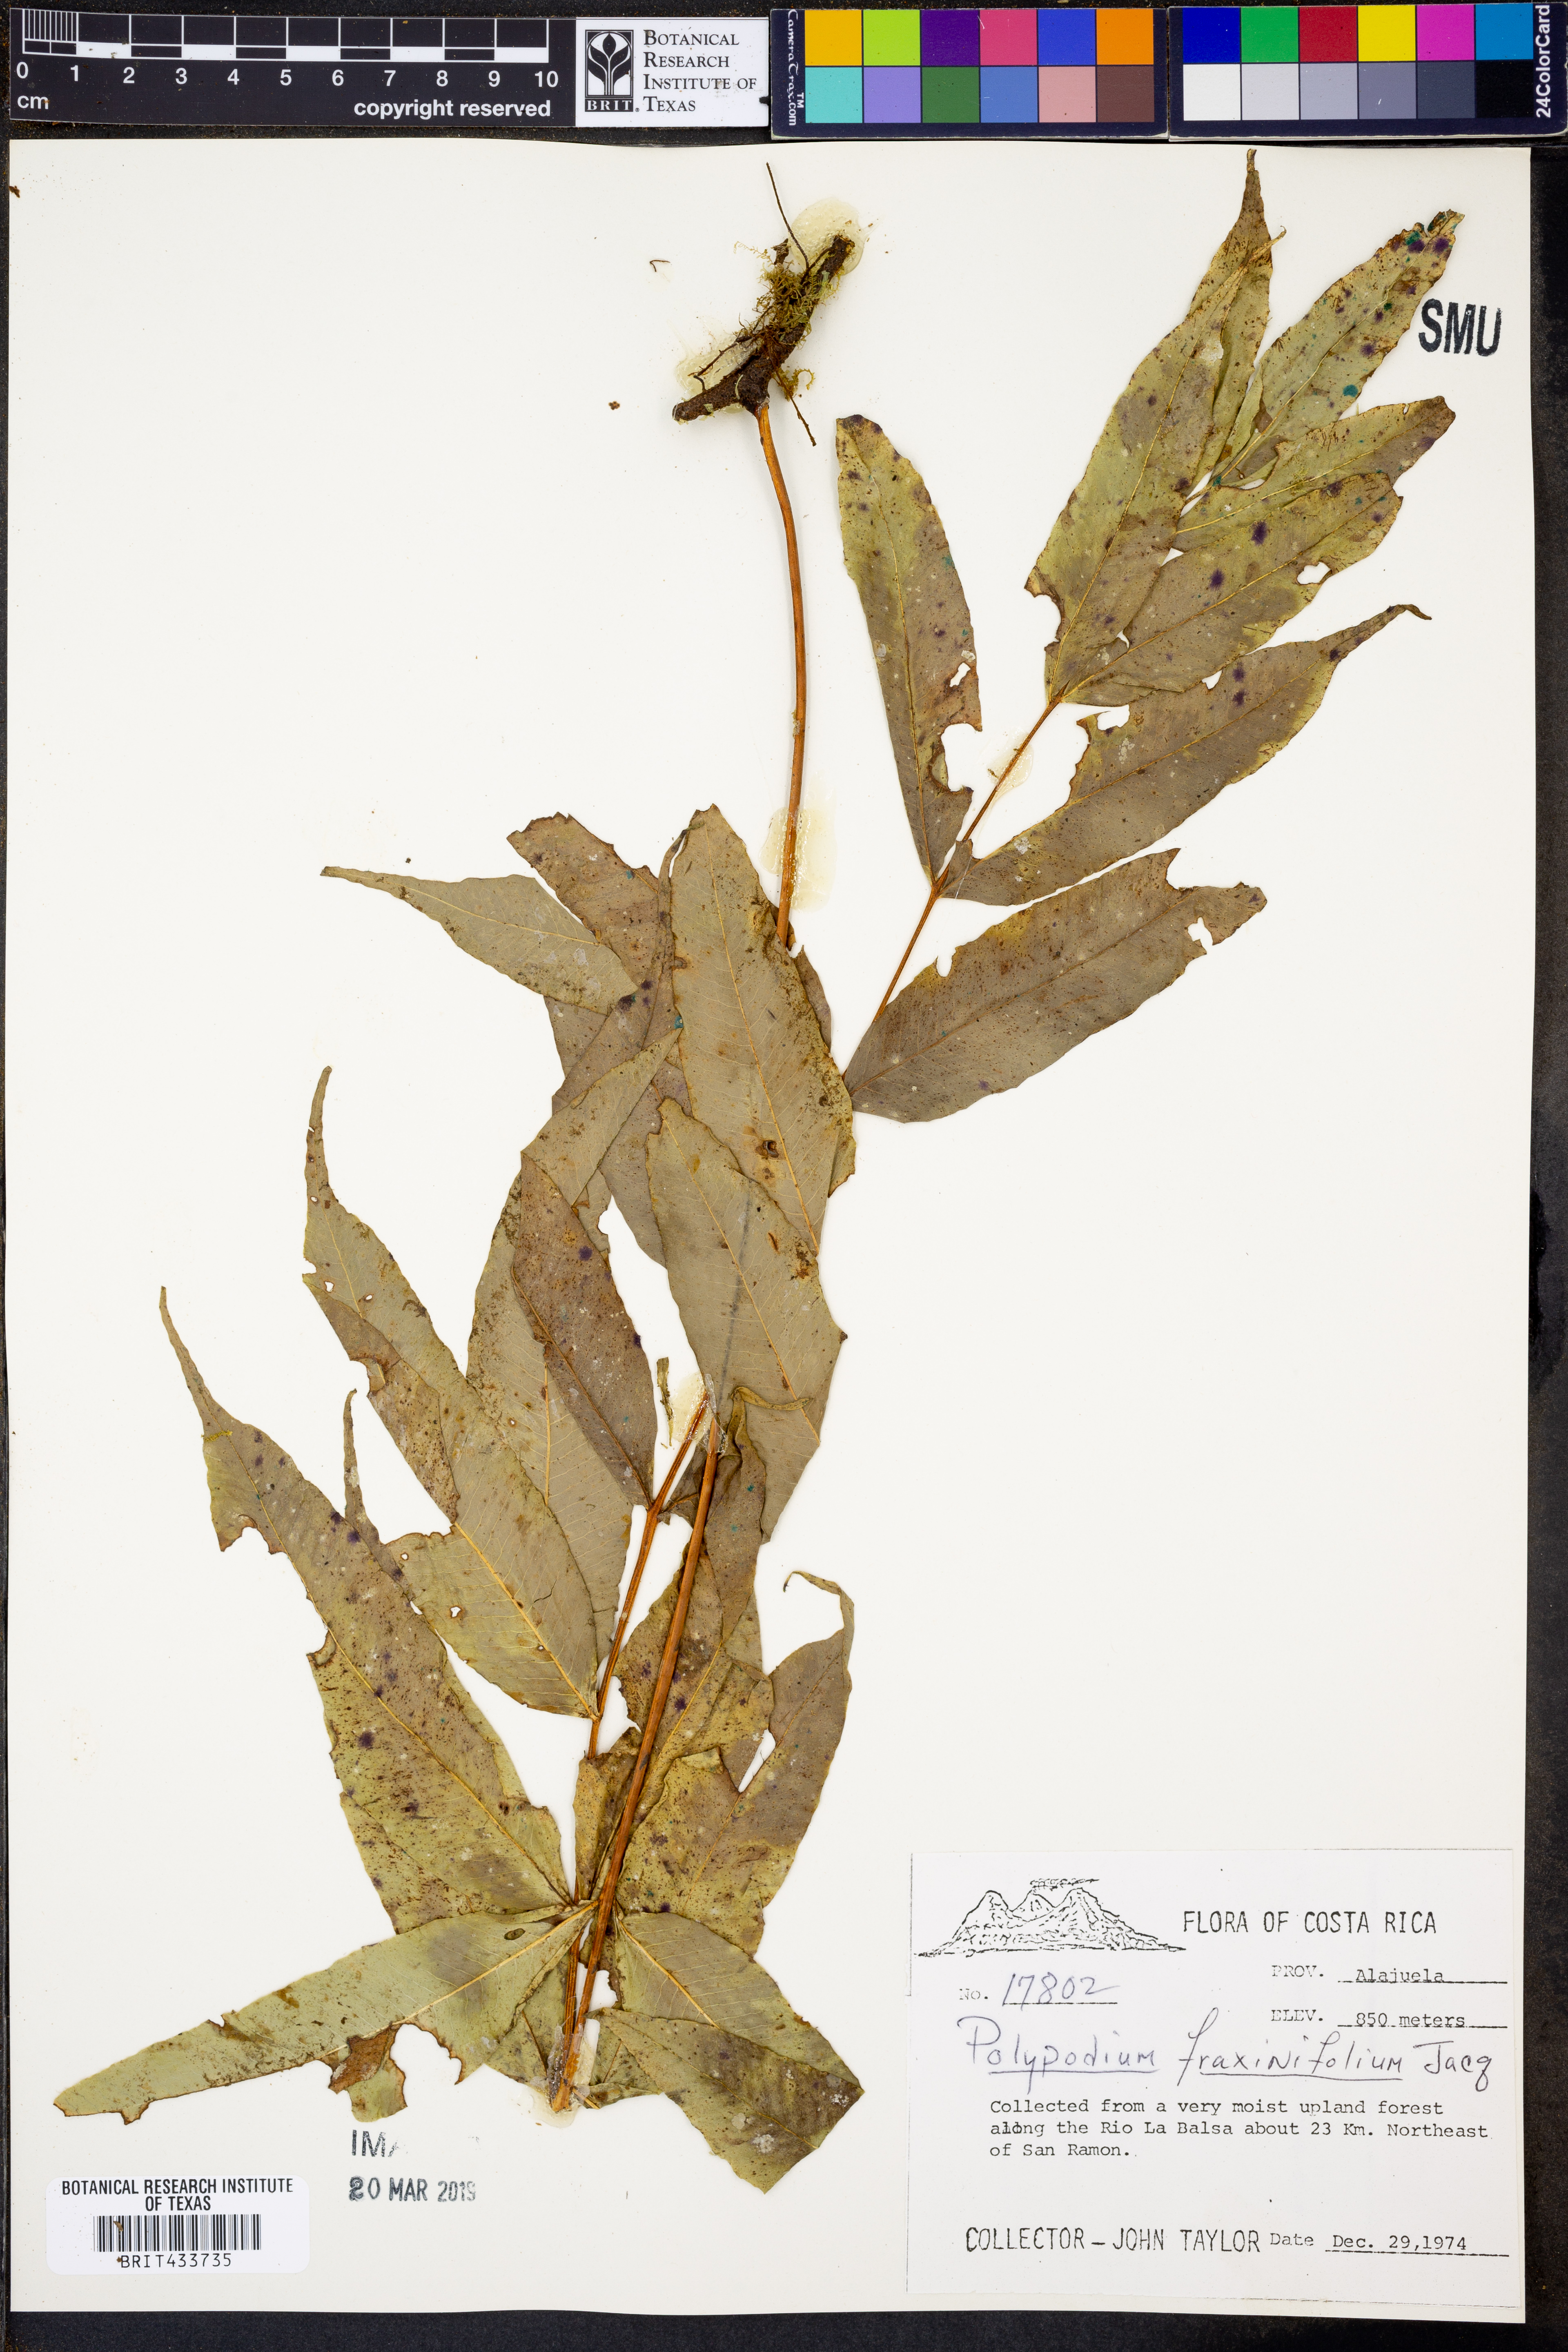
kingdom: Plantae
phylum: Tracheophyta
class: Polypodiopsida
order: Polypodiales
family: Polypodiaceae
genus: Serpocaulon
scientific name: Serpocaulon fraxinifolium
